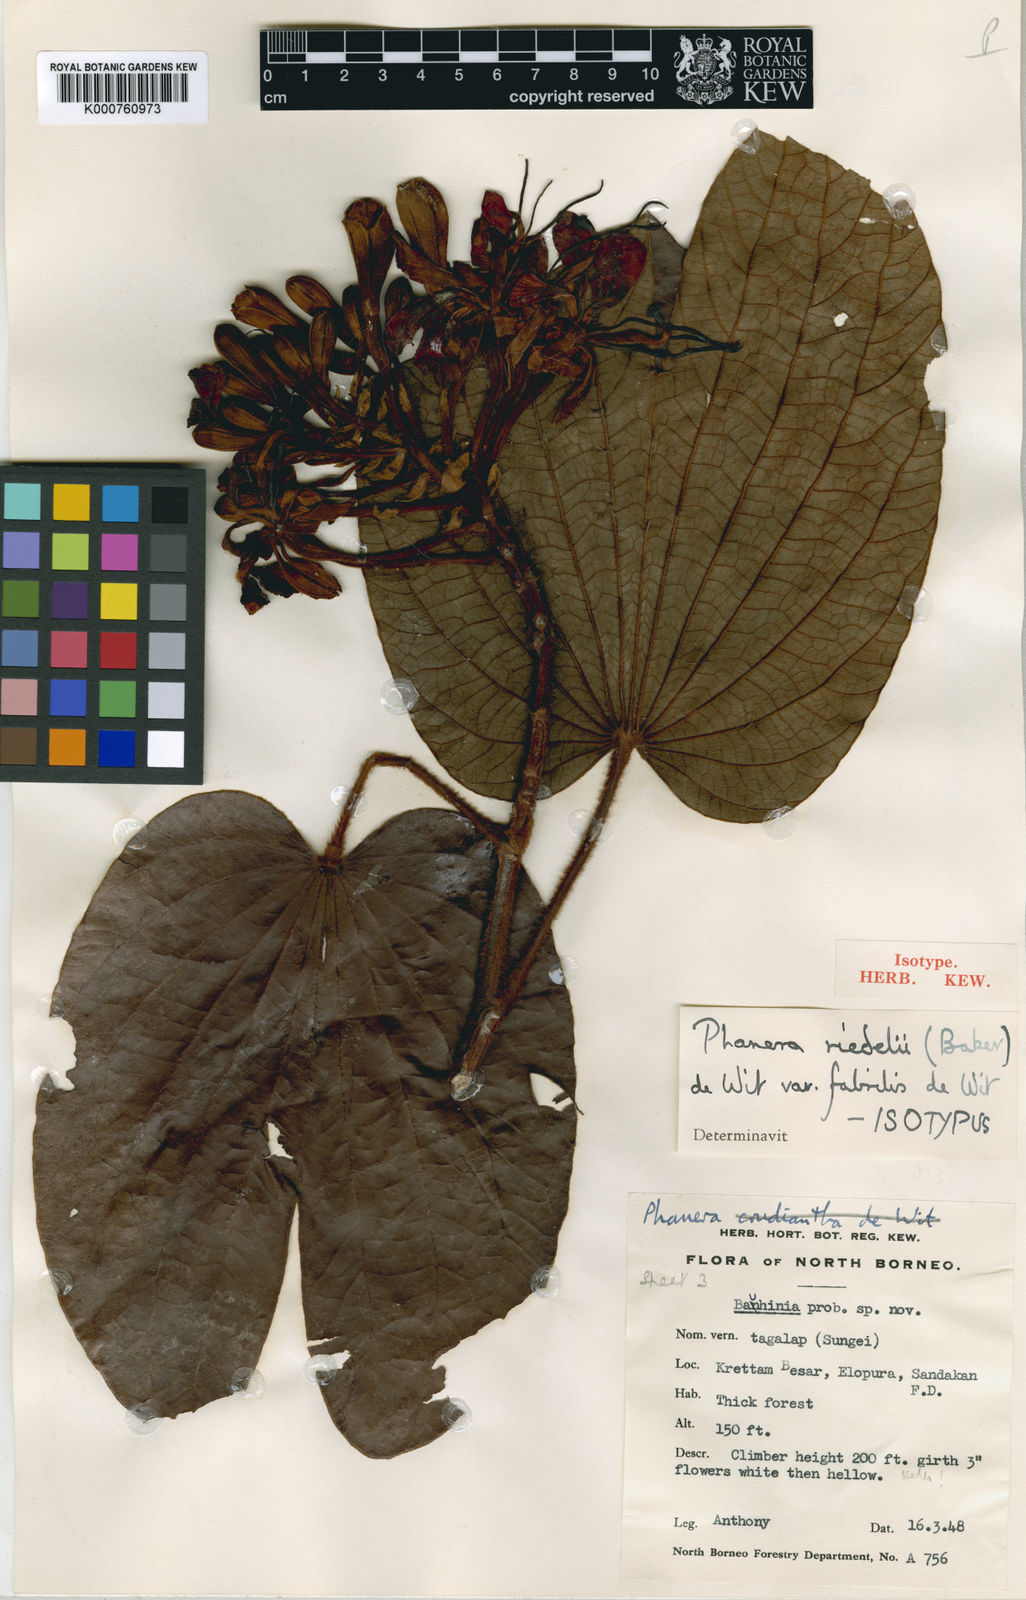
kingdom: Plantae
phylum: Tracheophyta
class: Magnoliopsida
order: Fabales
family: Fabaceae
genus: Phanera
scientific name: Phanera fabrilis
